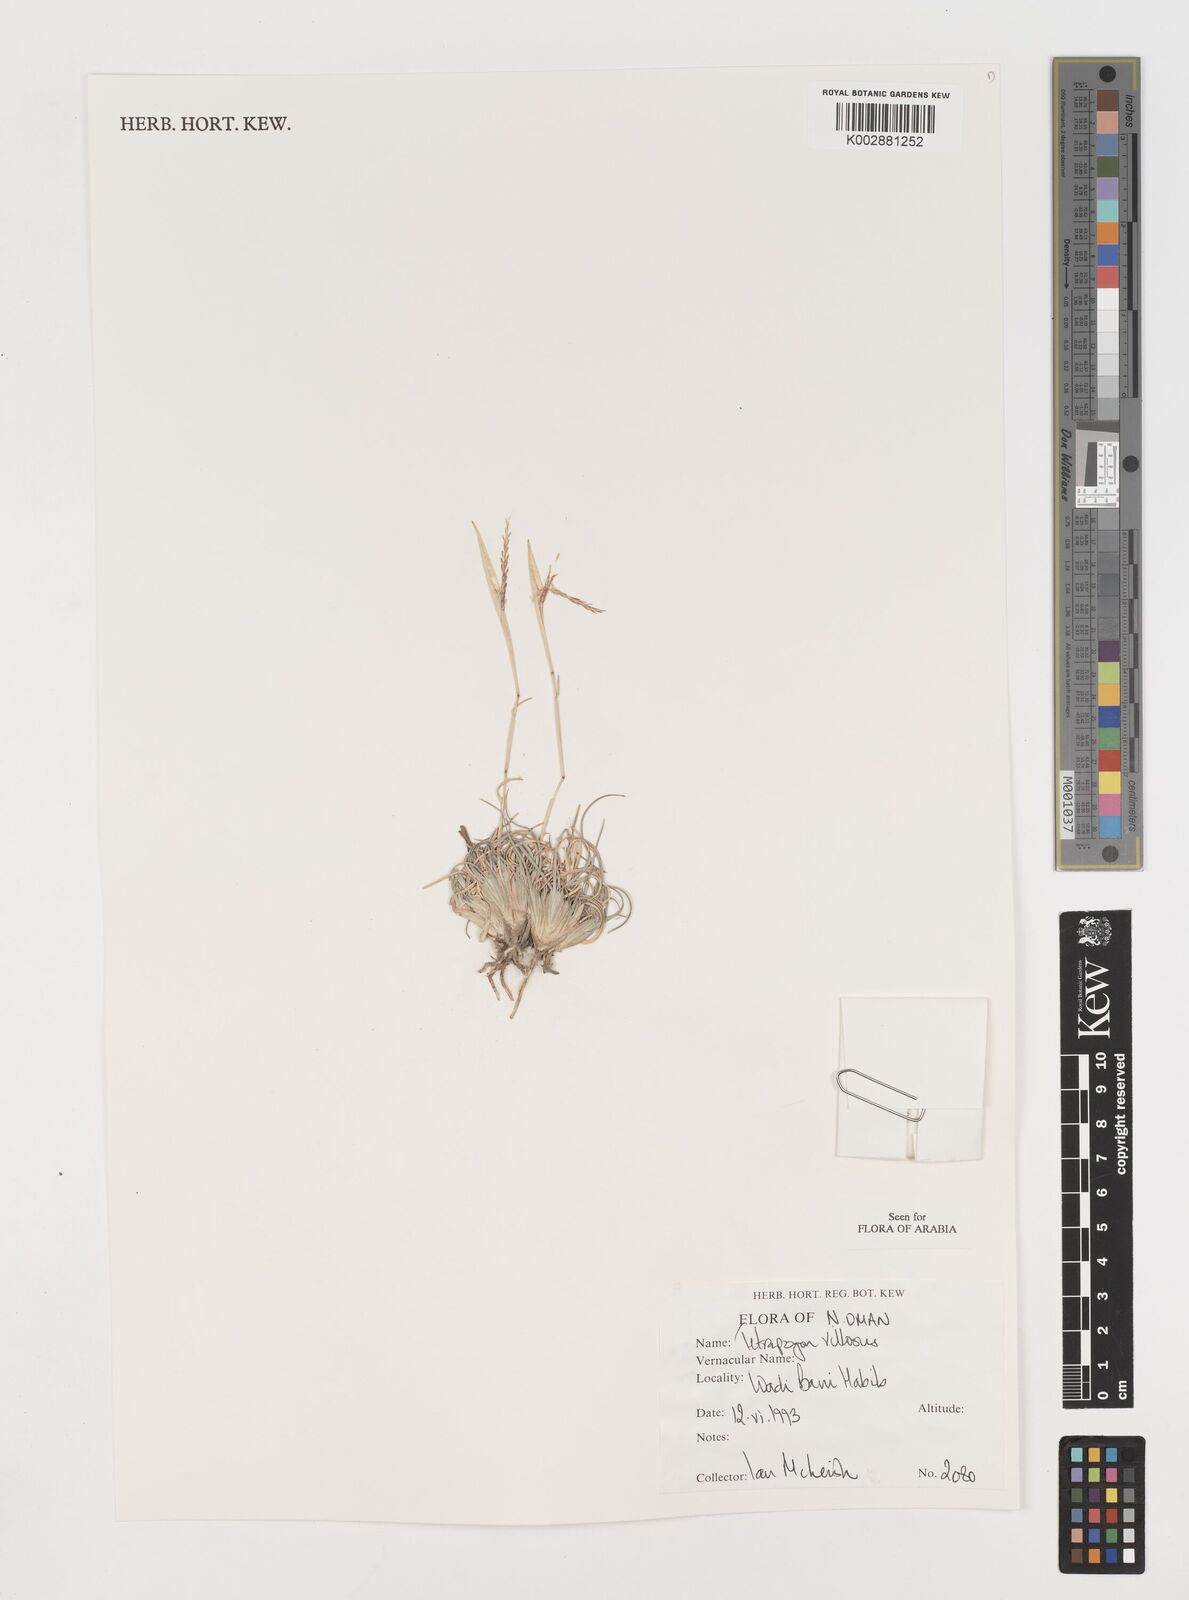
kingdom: Plantae
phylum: Tracheophyta
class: Liliopsida
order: Poales
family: Poaceae
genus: Tetrapogon
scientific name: Tetrapogon villosus
